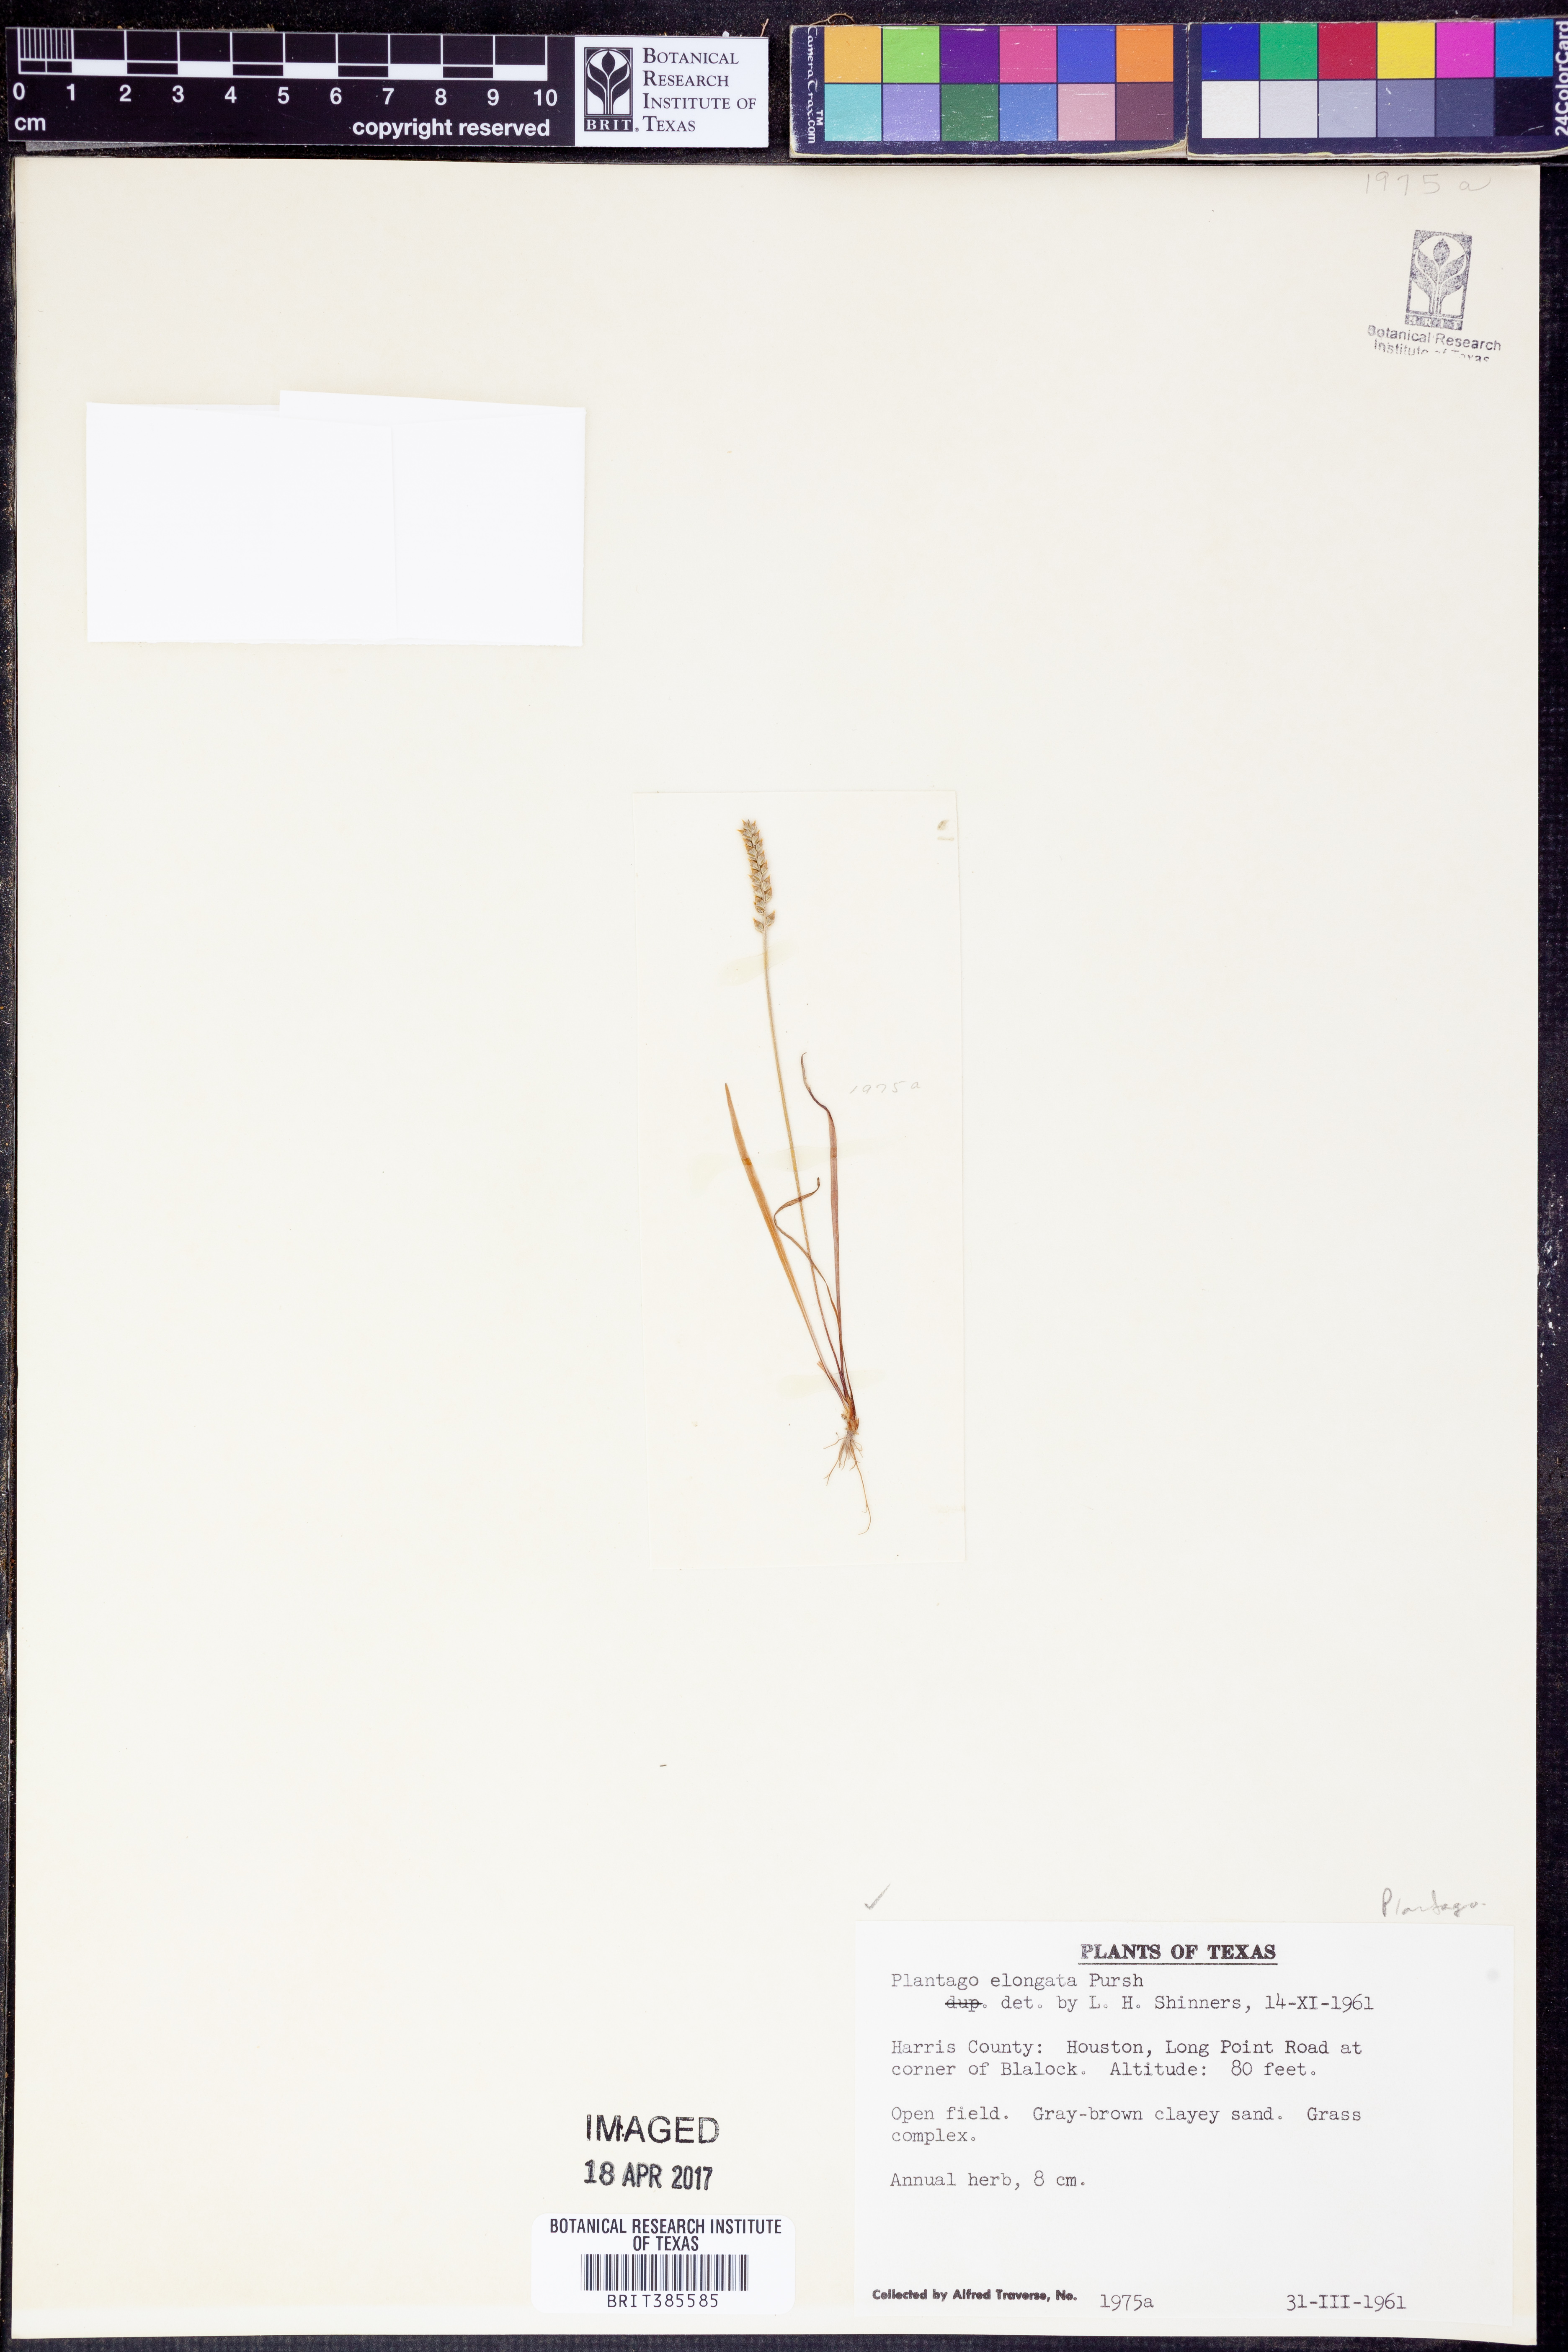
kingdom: Plantae
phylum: Tracheophyta
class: Magnoliopsida
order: Lamiales
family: Plantaginaceae
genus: Plantago
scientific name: Plantago elongata
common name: Linear-leaved plantain
